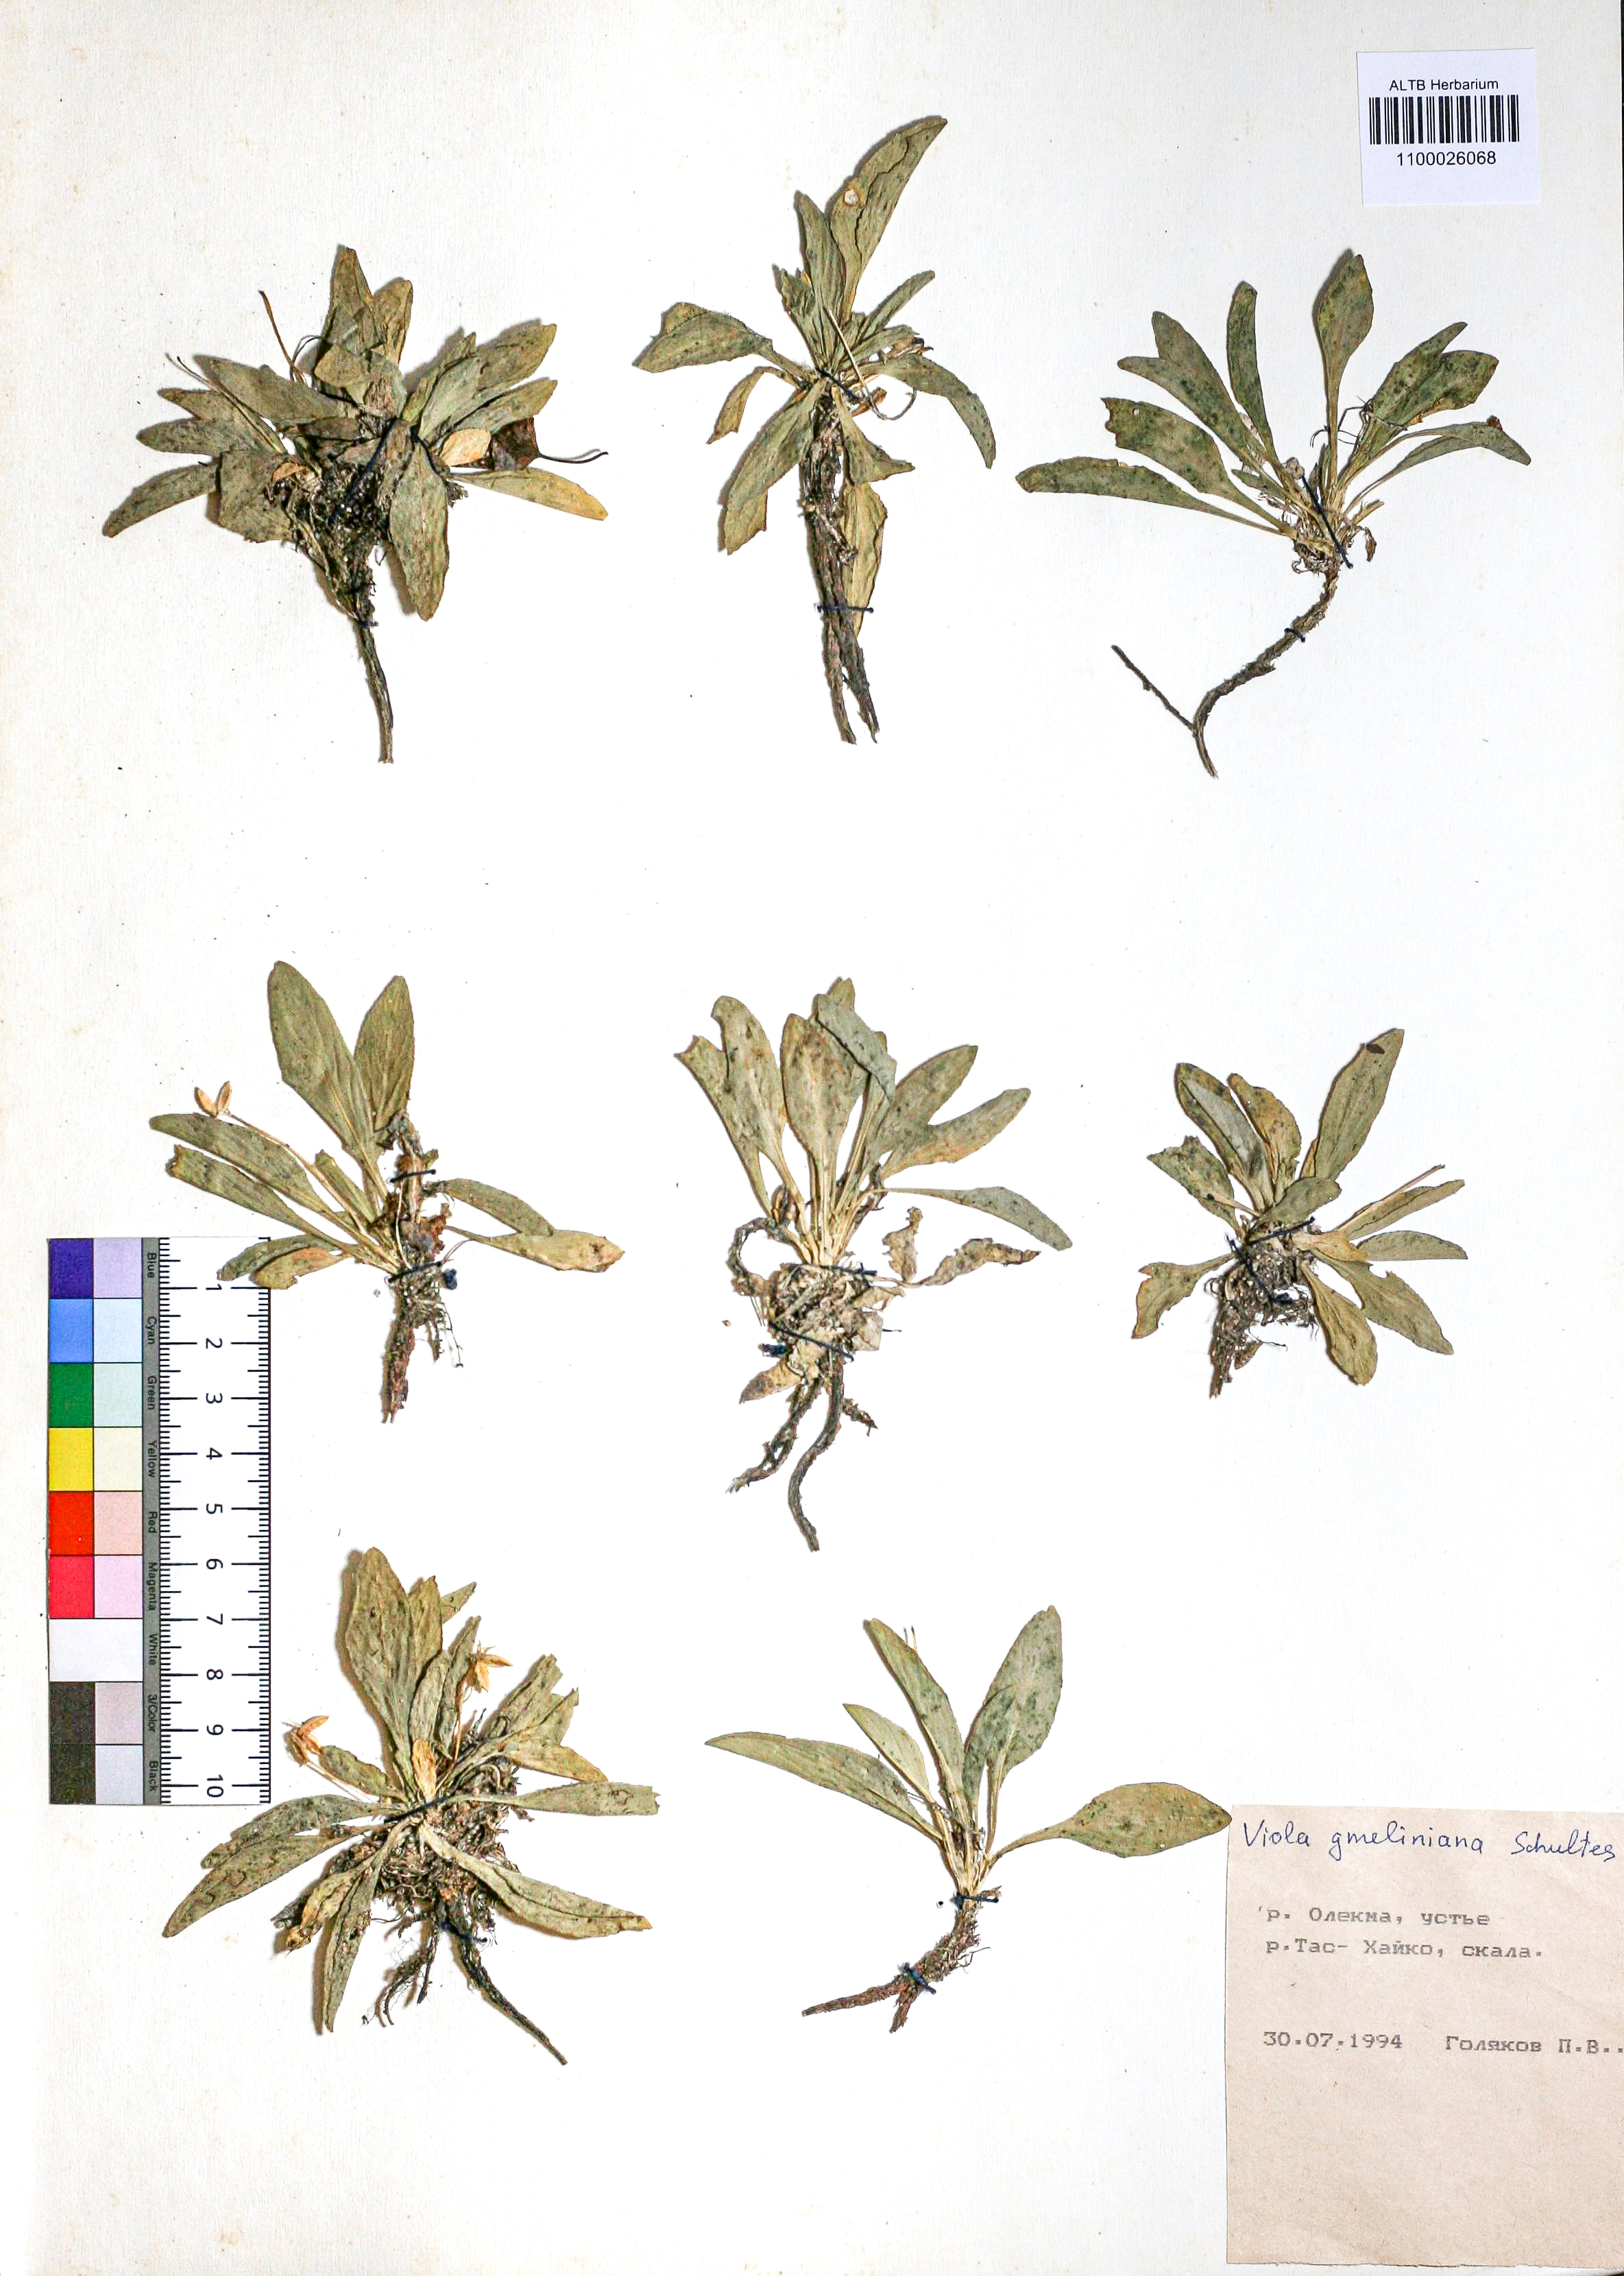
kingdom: Plantae
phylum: Tracheophyta
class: Magnoliopsida
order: Malpighiales
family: Violaceae
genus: Viola
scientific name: Viola gmeliniana
